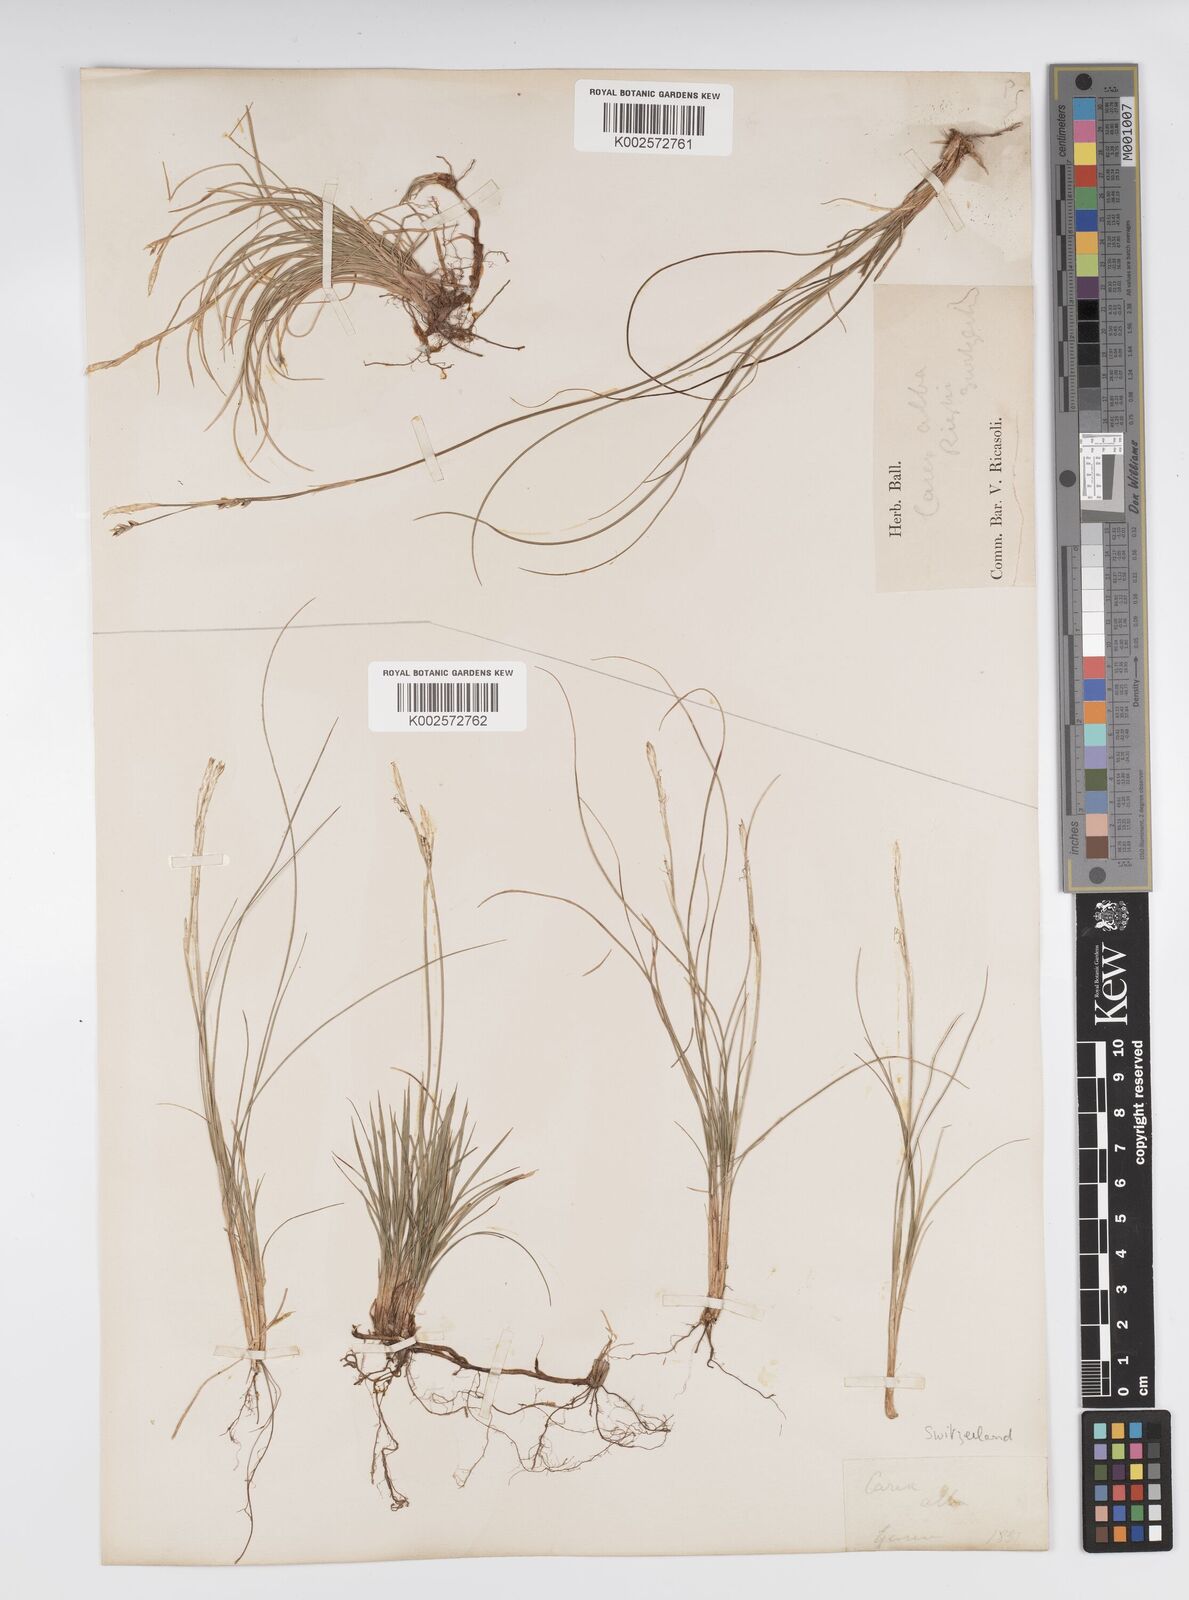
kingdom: Plantae
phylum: Tracheophyta
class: Liliopsida
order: Poales
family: Cyperaceae
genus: Carex
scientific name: Carex alba
